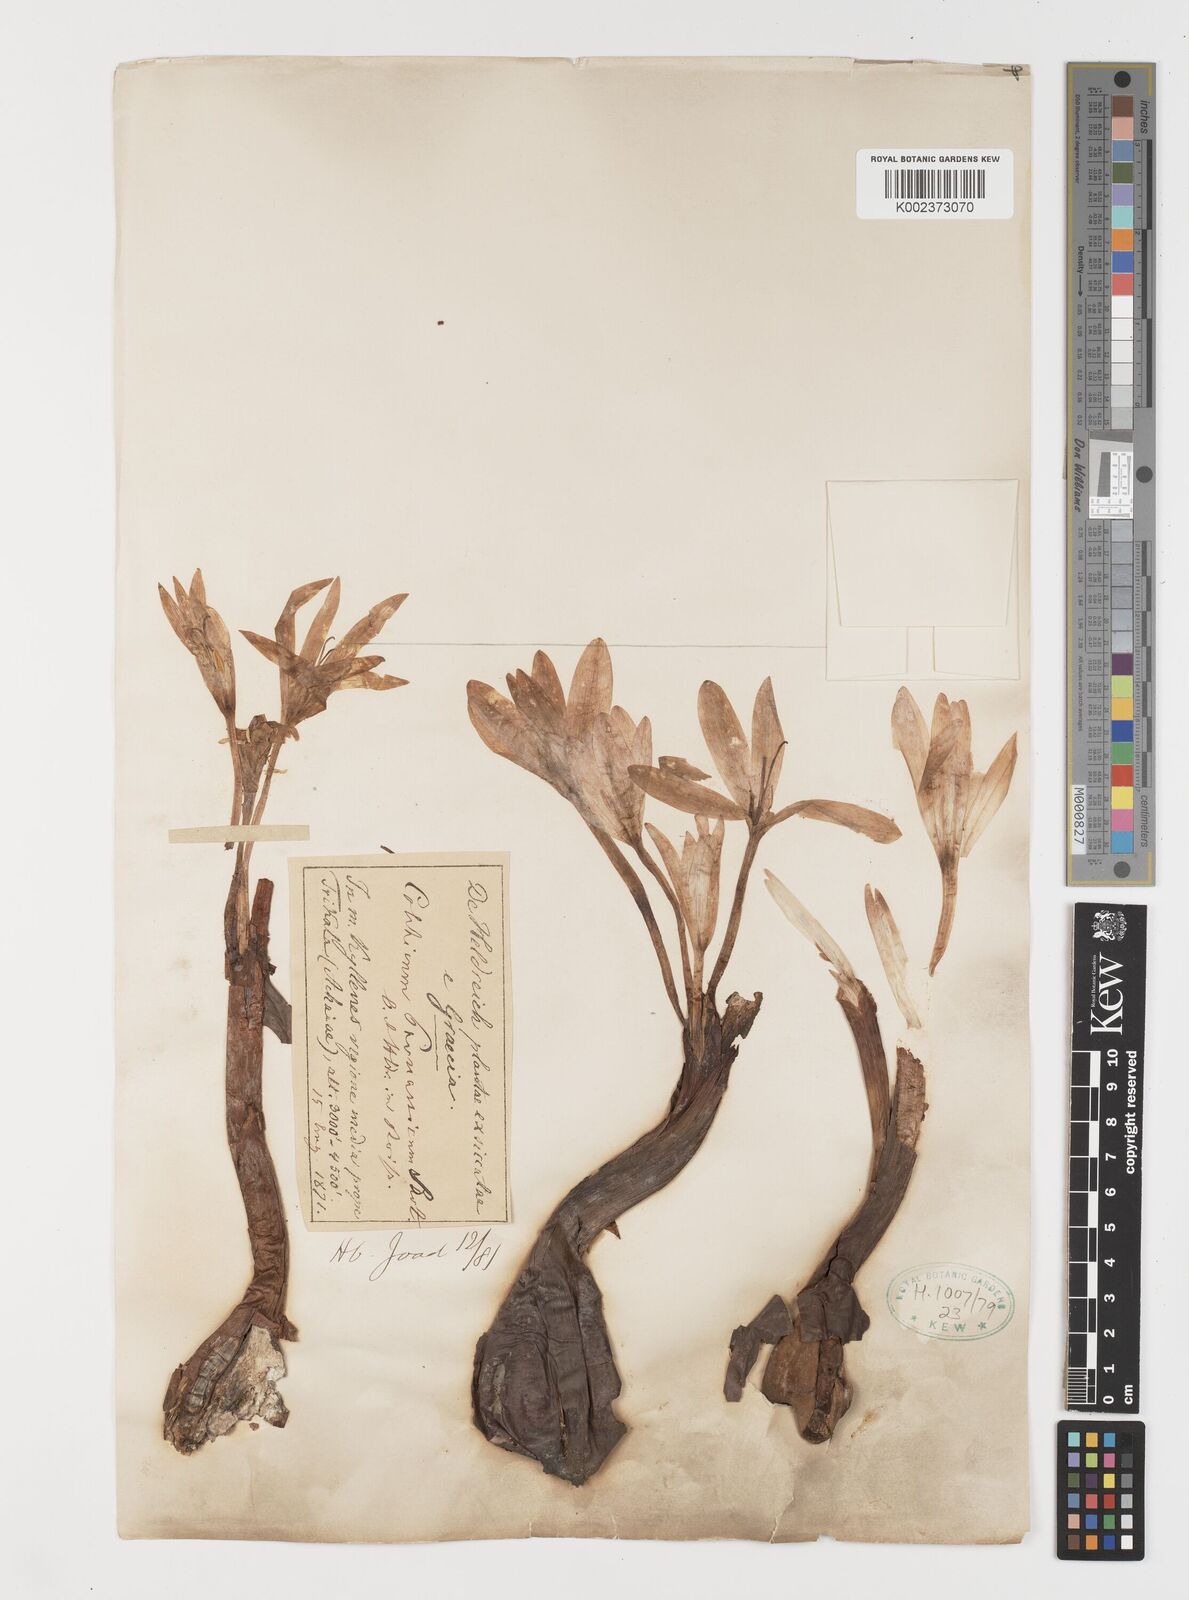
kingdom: Plantae
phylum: Tracheophyta
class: Liliopsida
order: Liliales
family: Colchicaceae
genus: Colchicum
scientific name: Colchicum parnassicum
